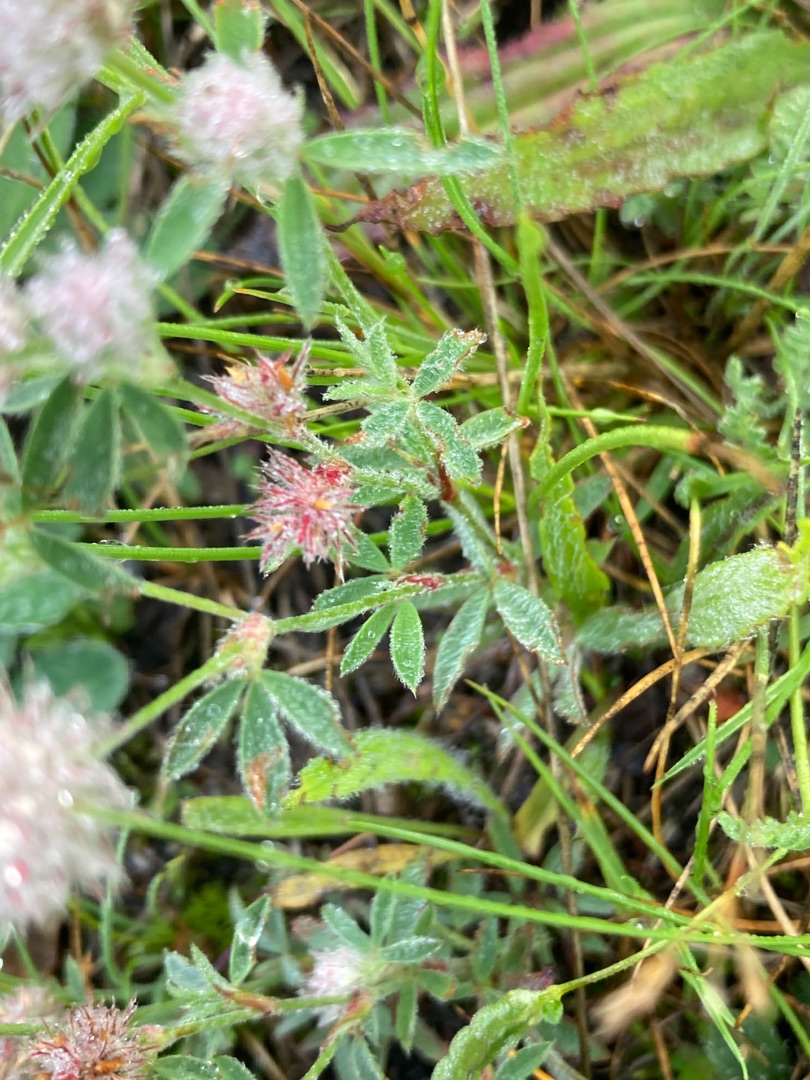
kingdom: Plantae
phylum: Tracheophyta
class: Magnoliopsida
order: Fabales
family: Fabaceae
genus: Trifolium
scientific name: Trifolium arvense
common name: Hare-kløver
